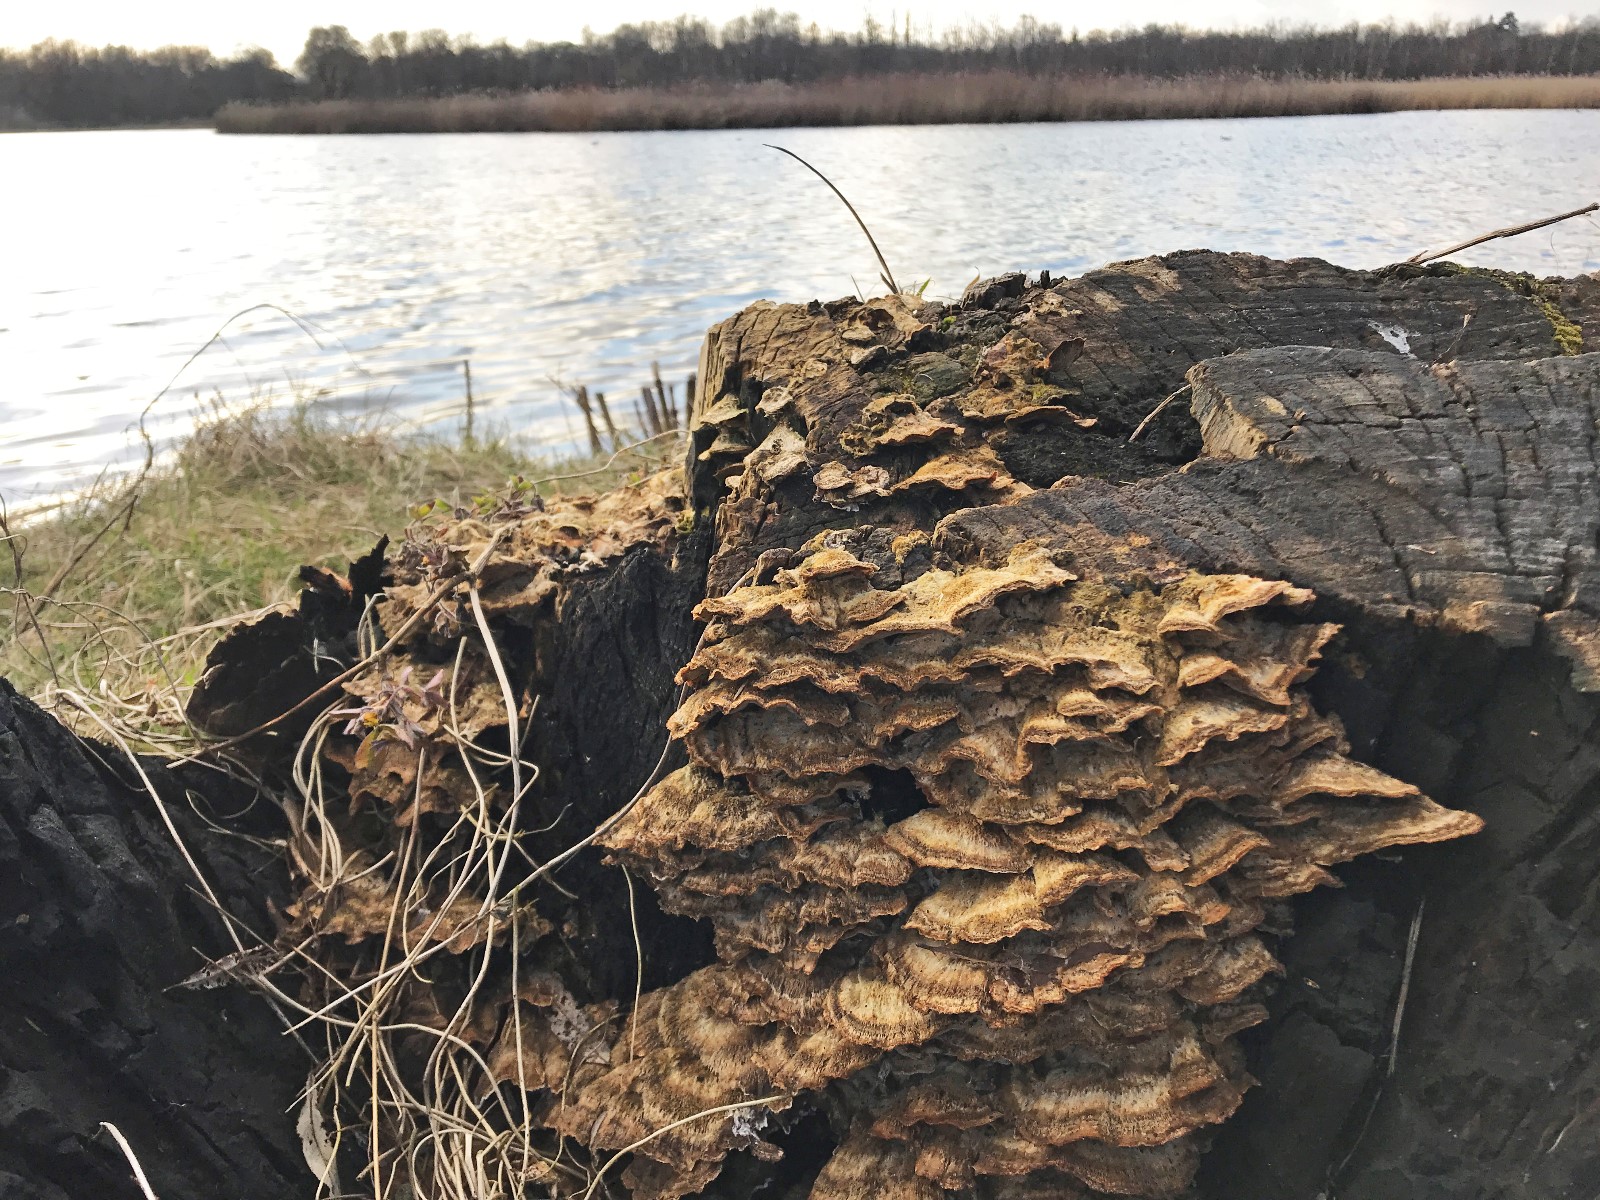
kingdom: Fungi
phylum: Basidiomycota
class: Agaricomycetes
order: Polyporales
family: Phanerochaetaceae
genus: Bjerkandera
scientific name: Bjerkandera adusta
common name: sveden sodporesvamp
